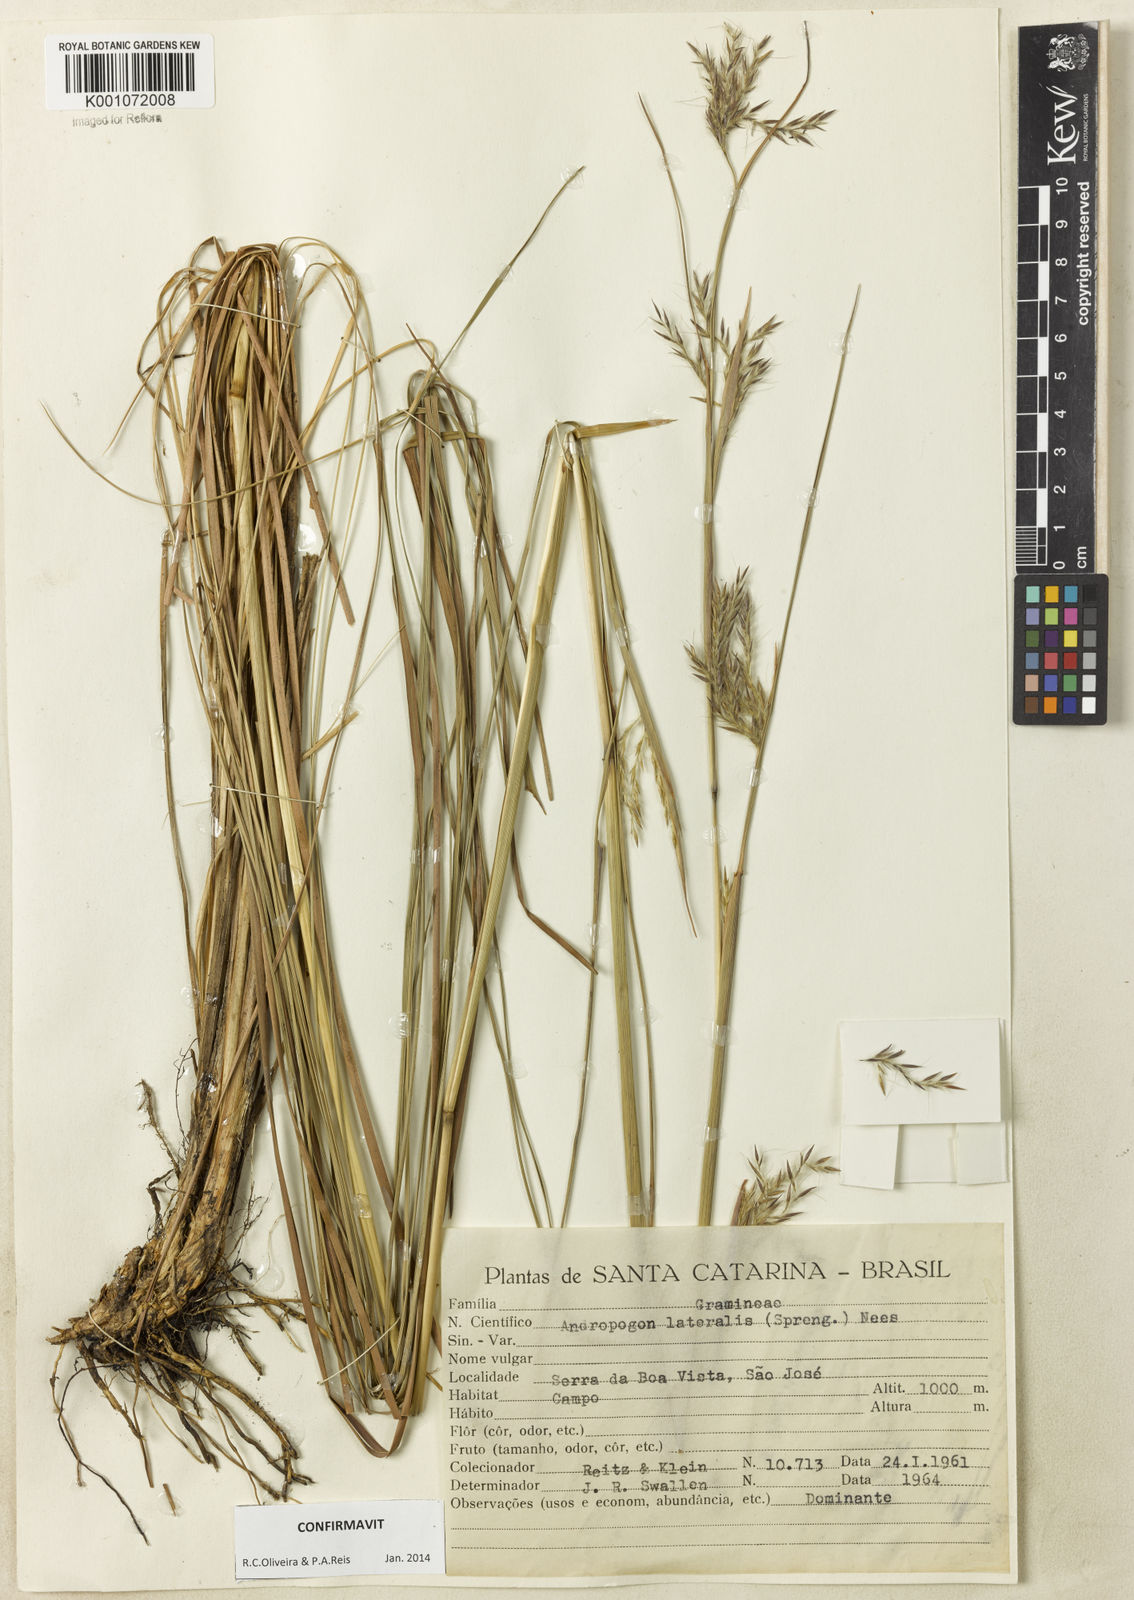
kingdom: Plantae
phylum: Tracheophyta
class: Liliopsida
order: Poales
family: Poaceae
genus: Andropogon
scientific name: Andropogon lateralis
